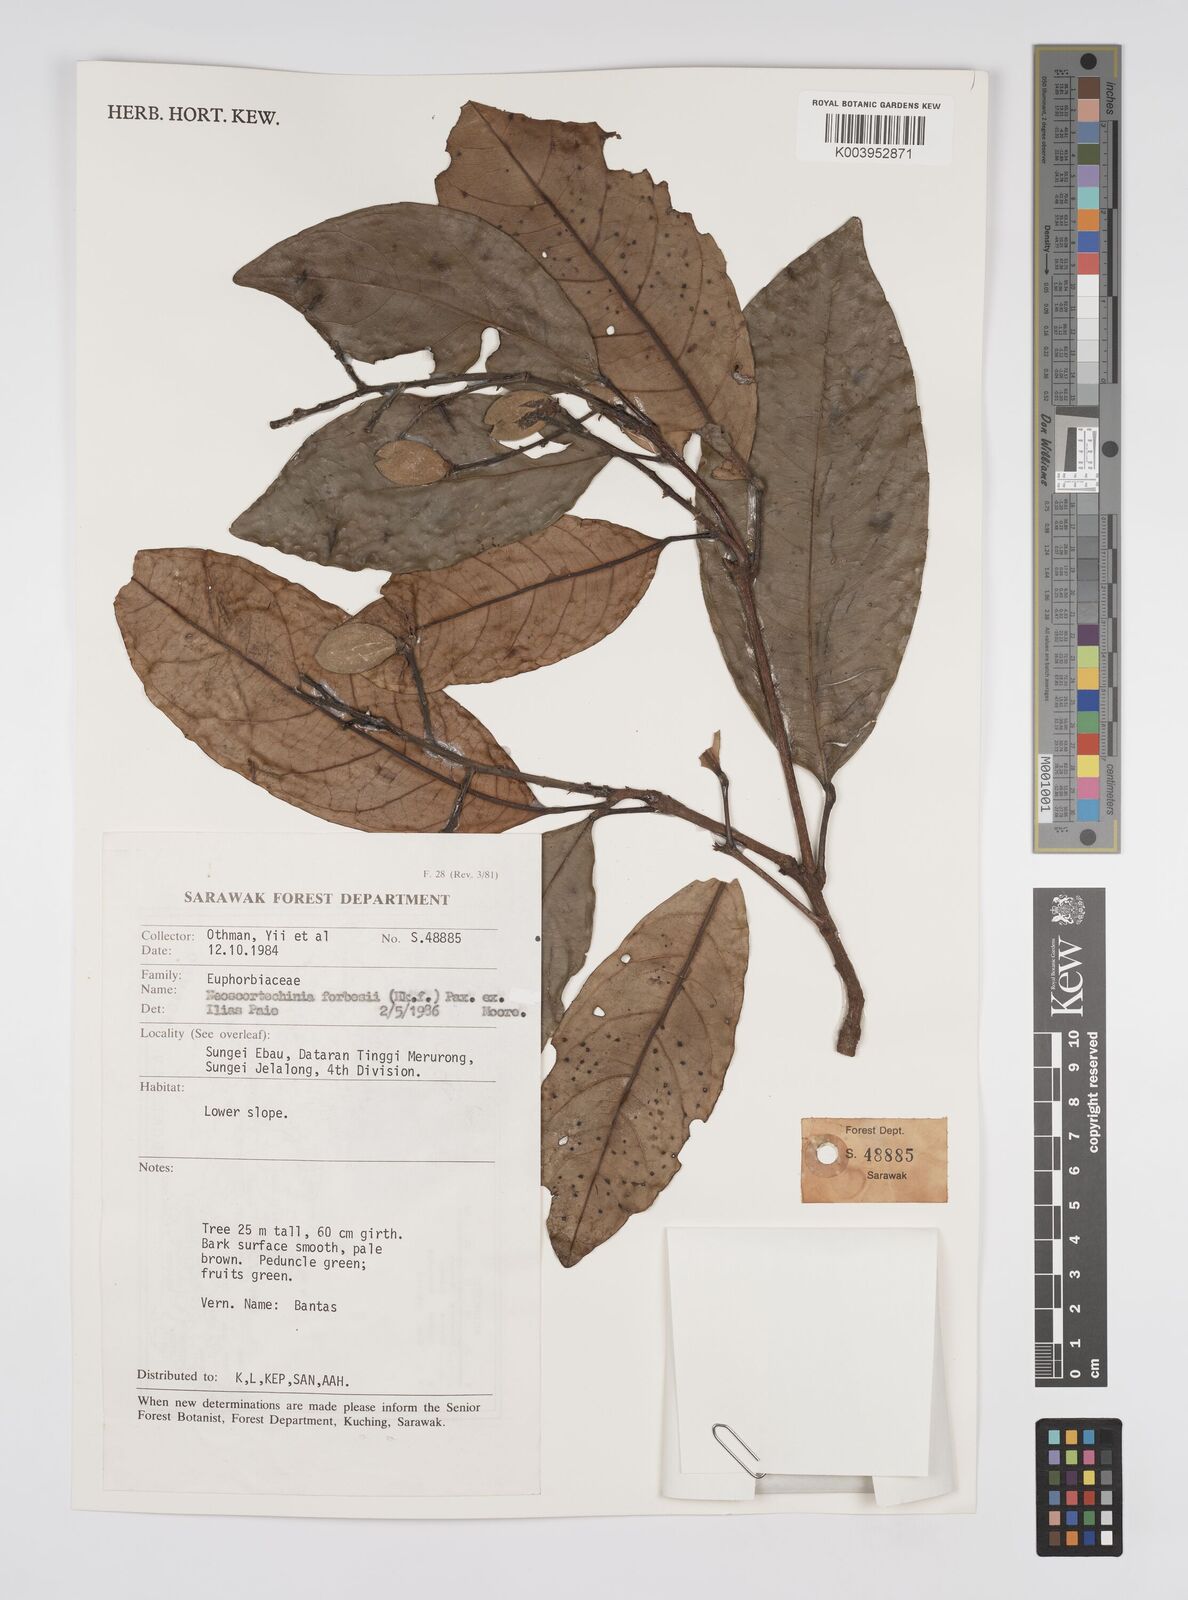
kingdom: Plantae
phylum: Tracheophyta
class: Magnoliopsida
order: Malpighiales
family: Euphorbiaceae
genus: Neoscortechinia
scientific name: Neoscortechinia philippinensis
